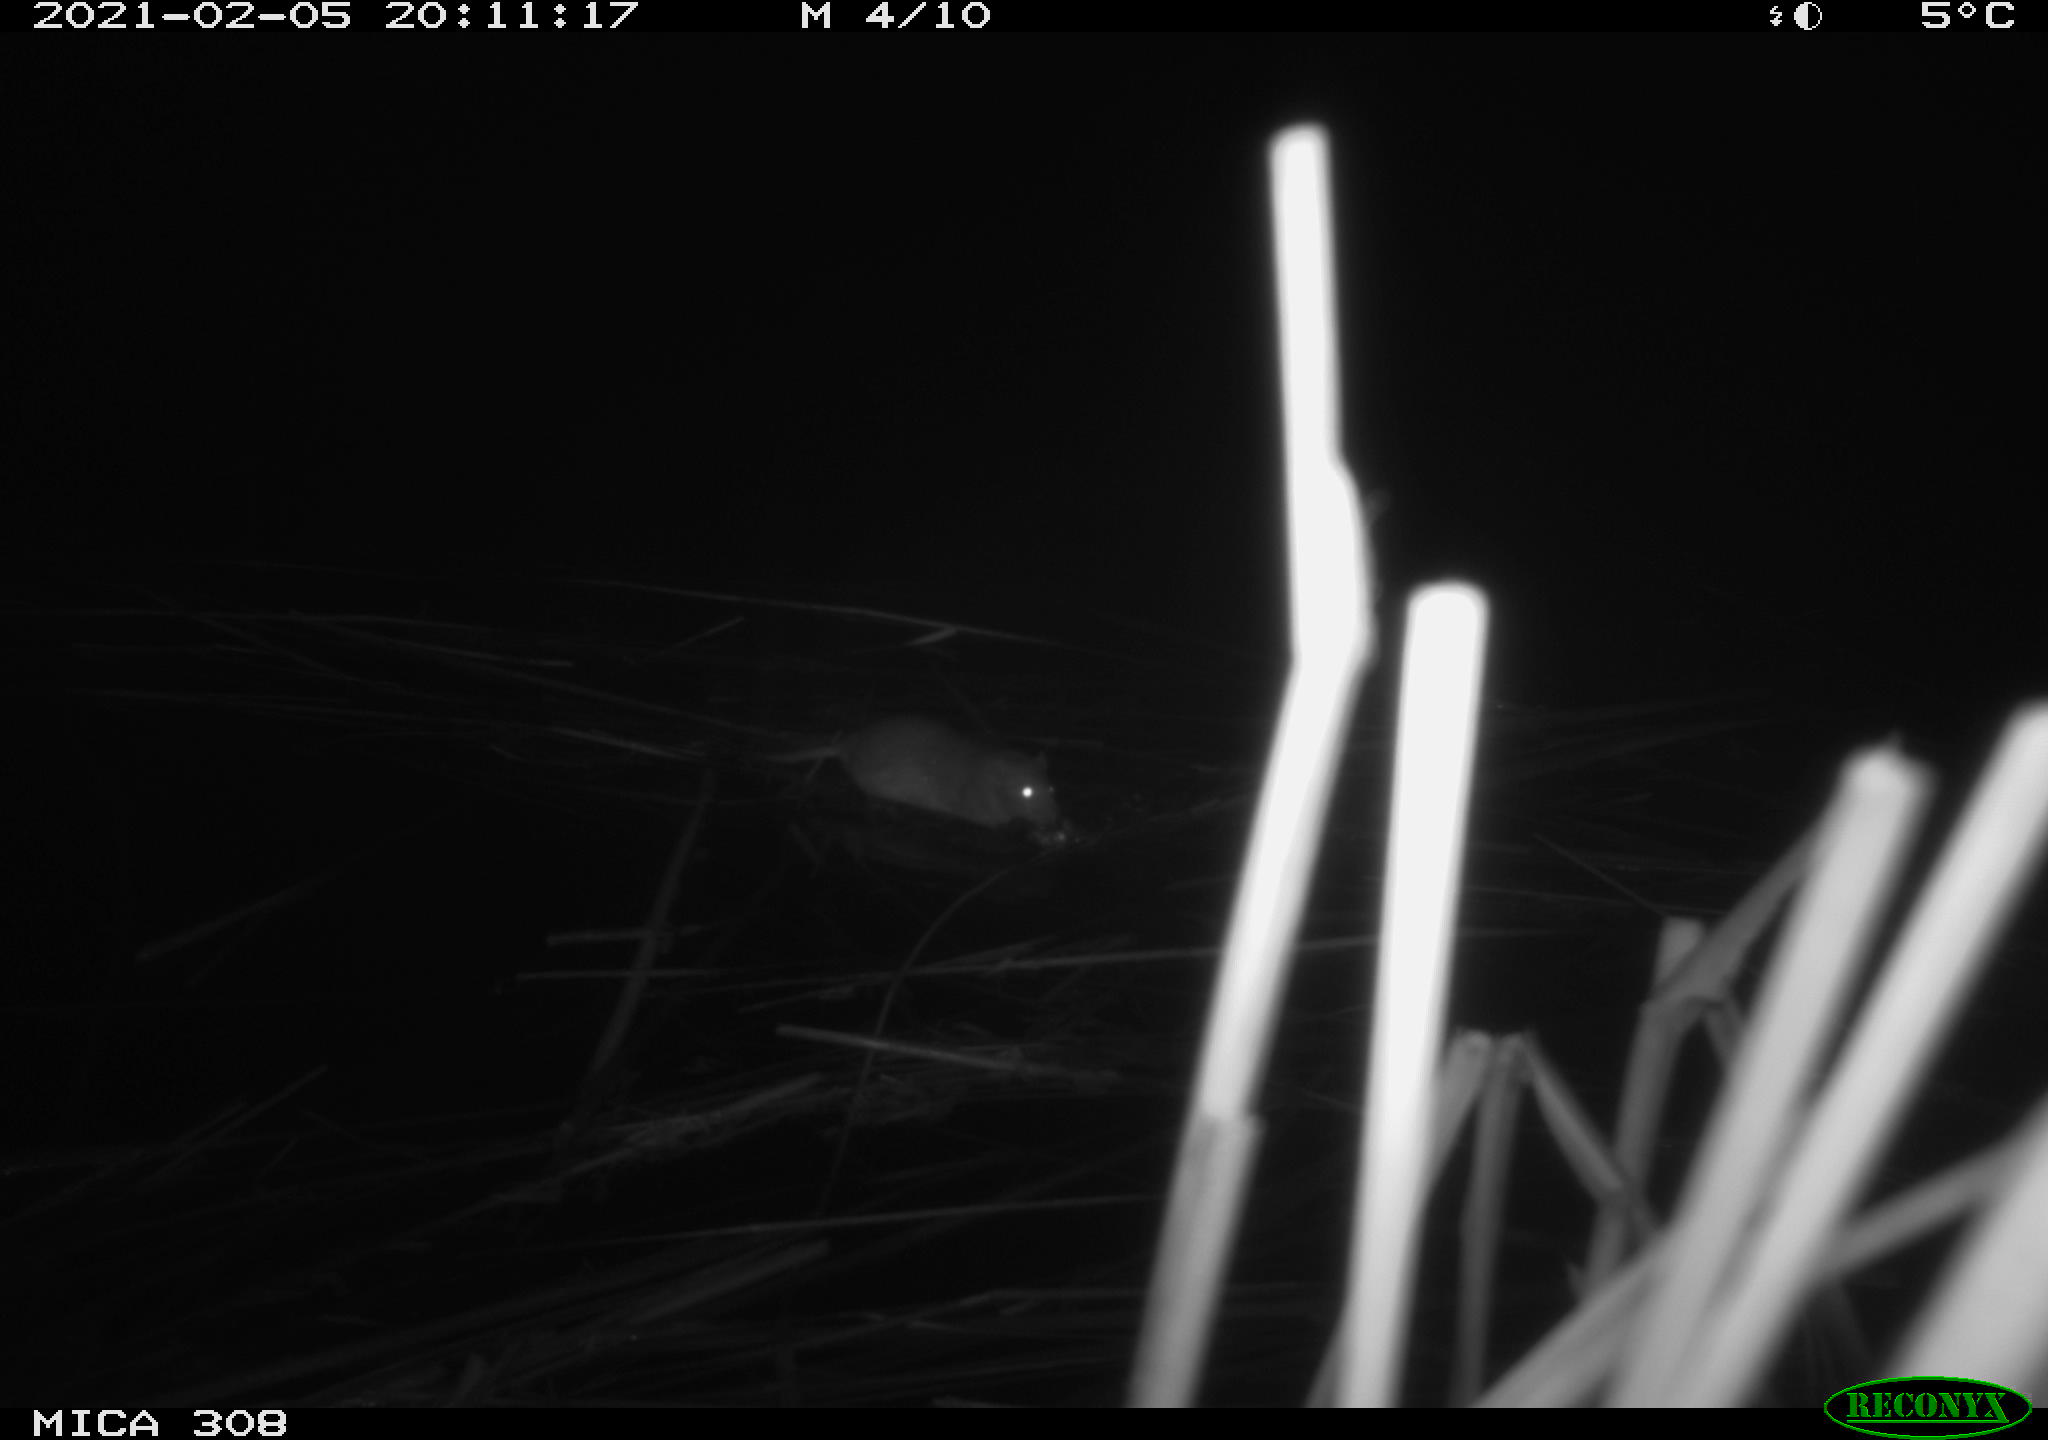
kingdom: Animalia
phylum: Chordata
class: Mammalia
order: Rodentia
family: Muridae
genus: Rattus
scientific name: Rattus norvegicus
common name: Brown rat
